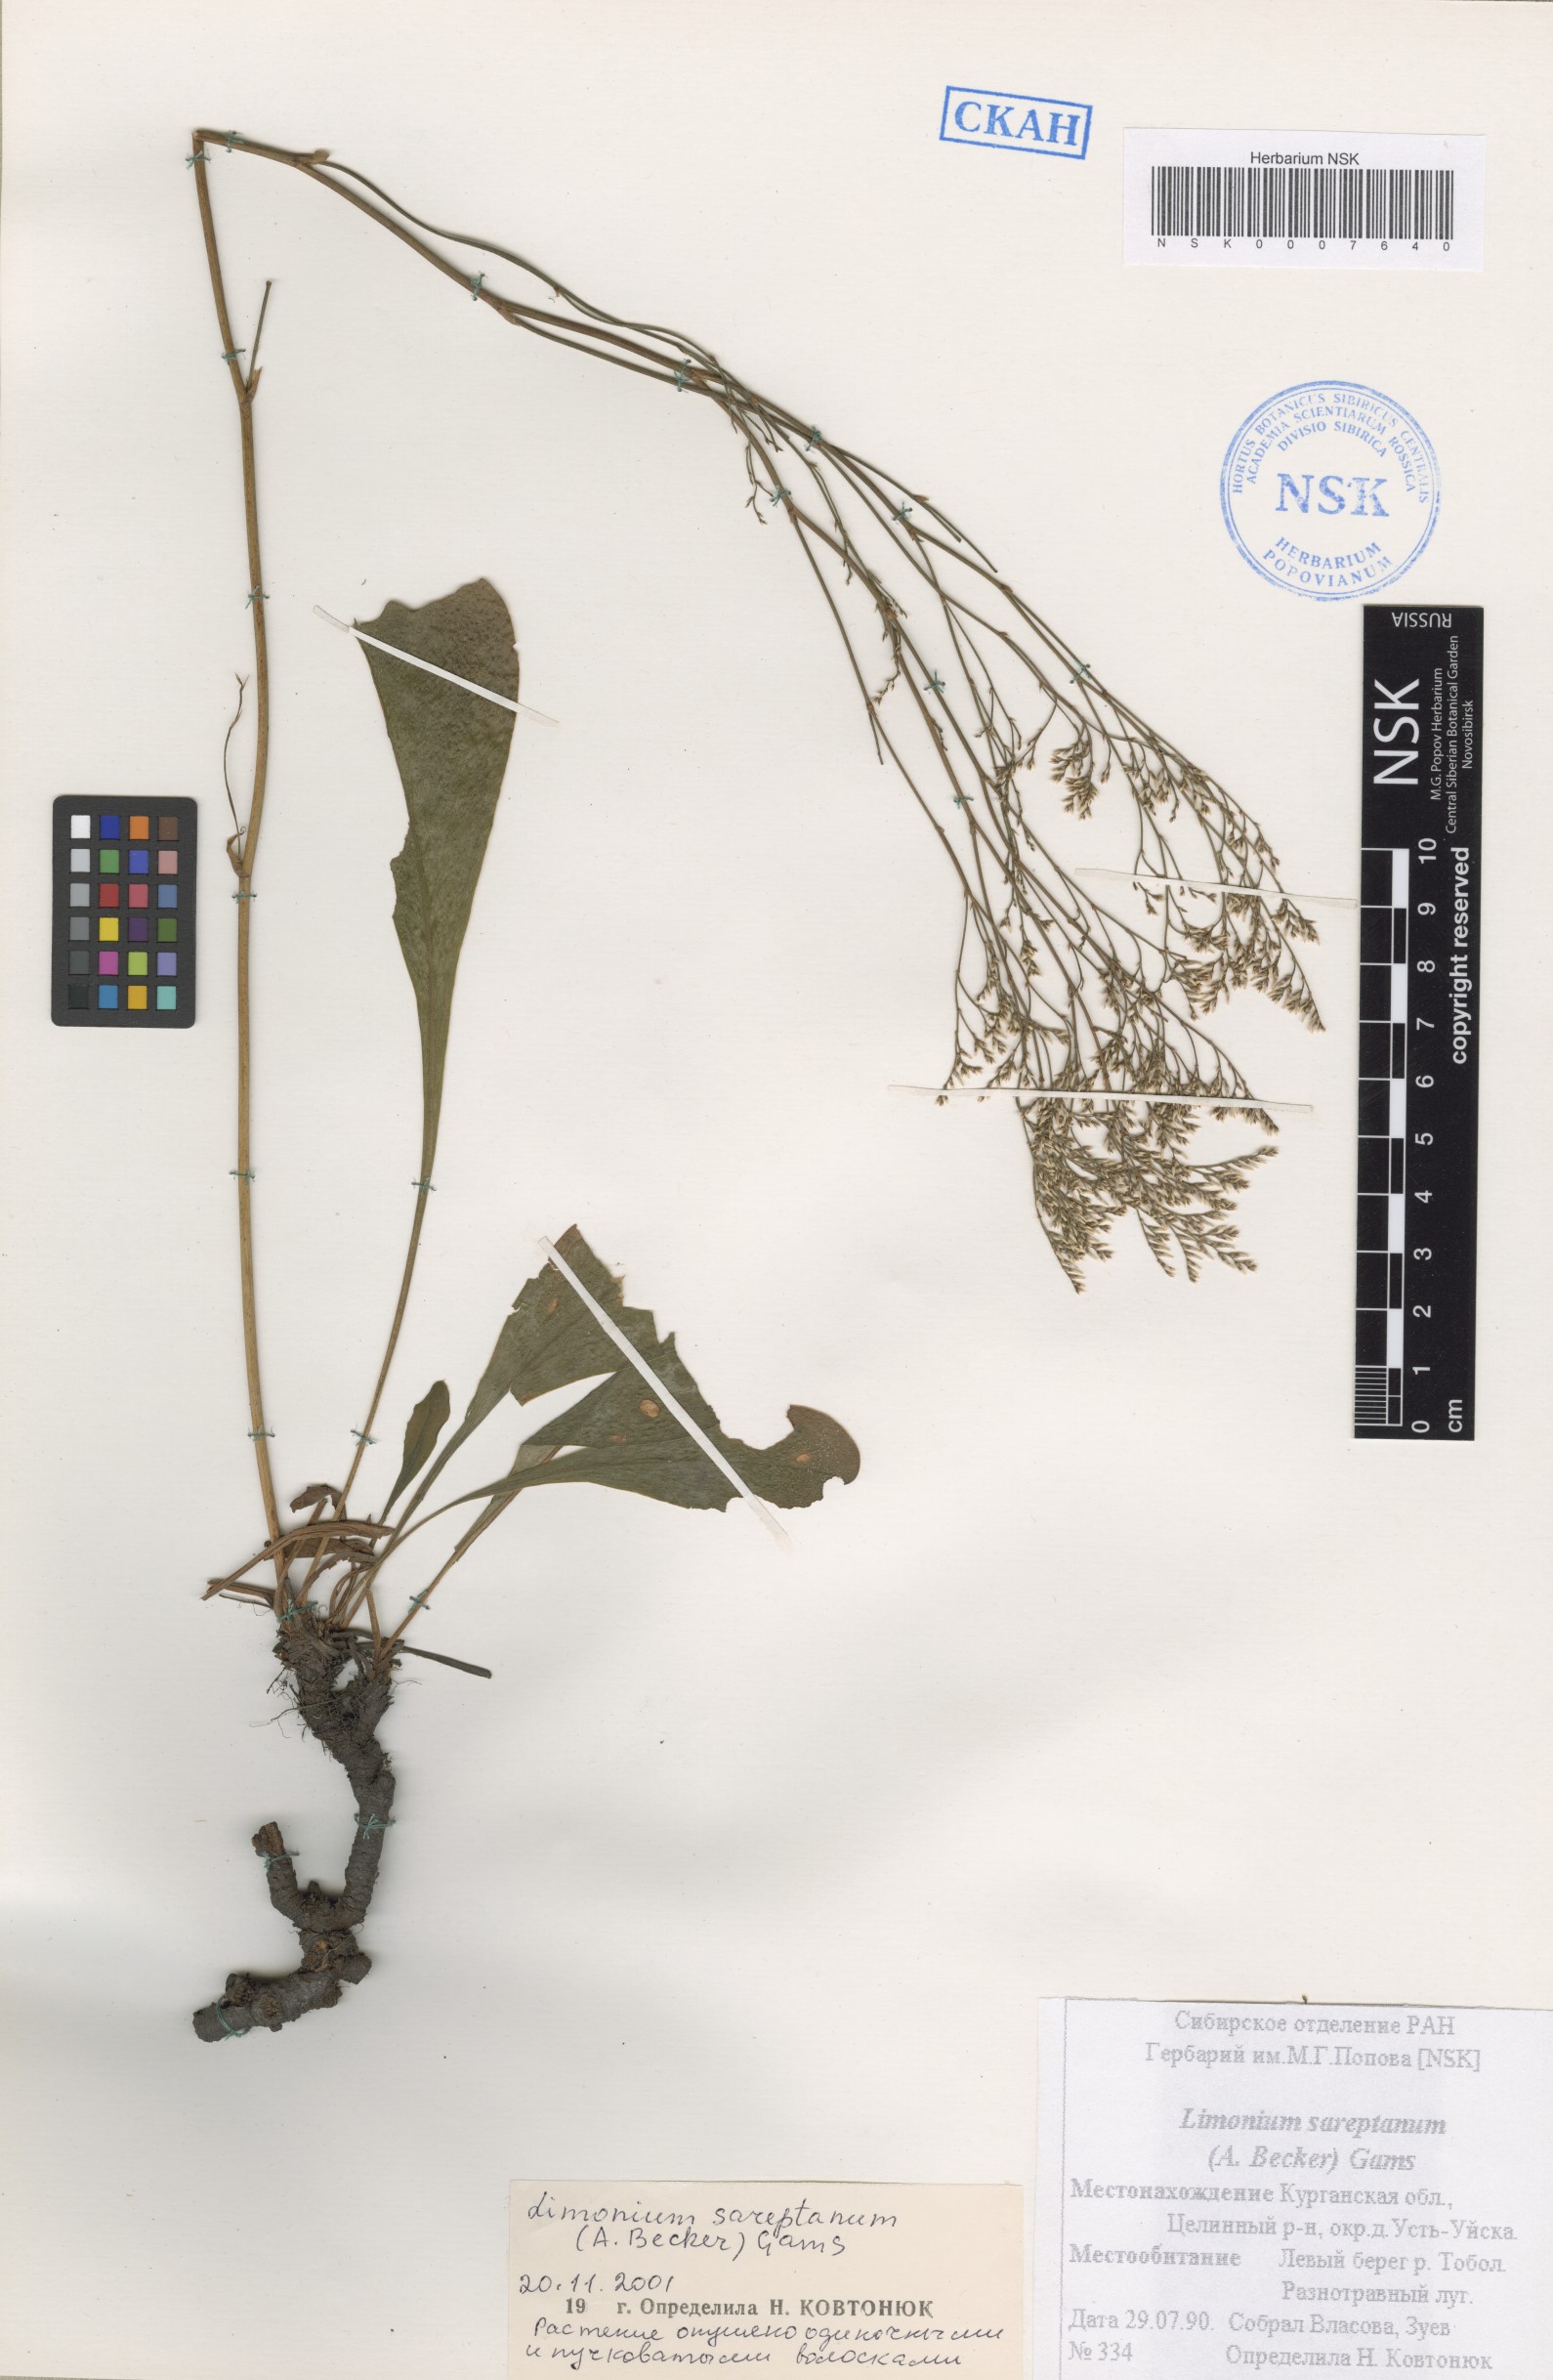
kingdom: Plantae
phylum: Tracheophyta
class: Magnoliopsida
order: Caryophyllales
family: Plumbaginaceae
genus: Limonium
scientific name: Limonium sareptanum
